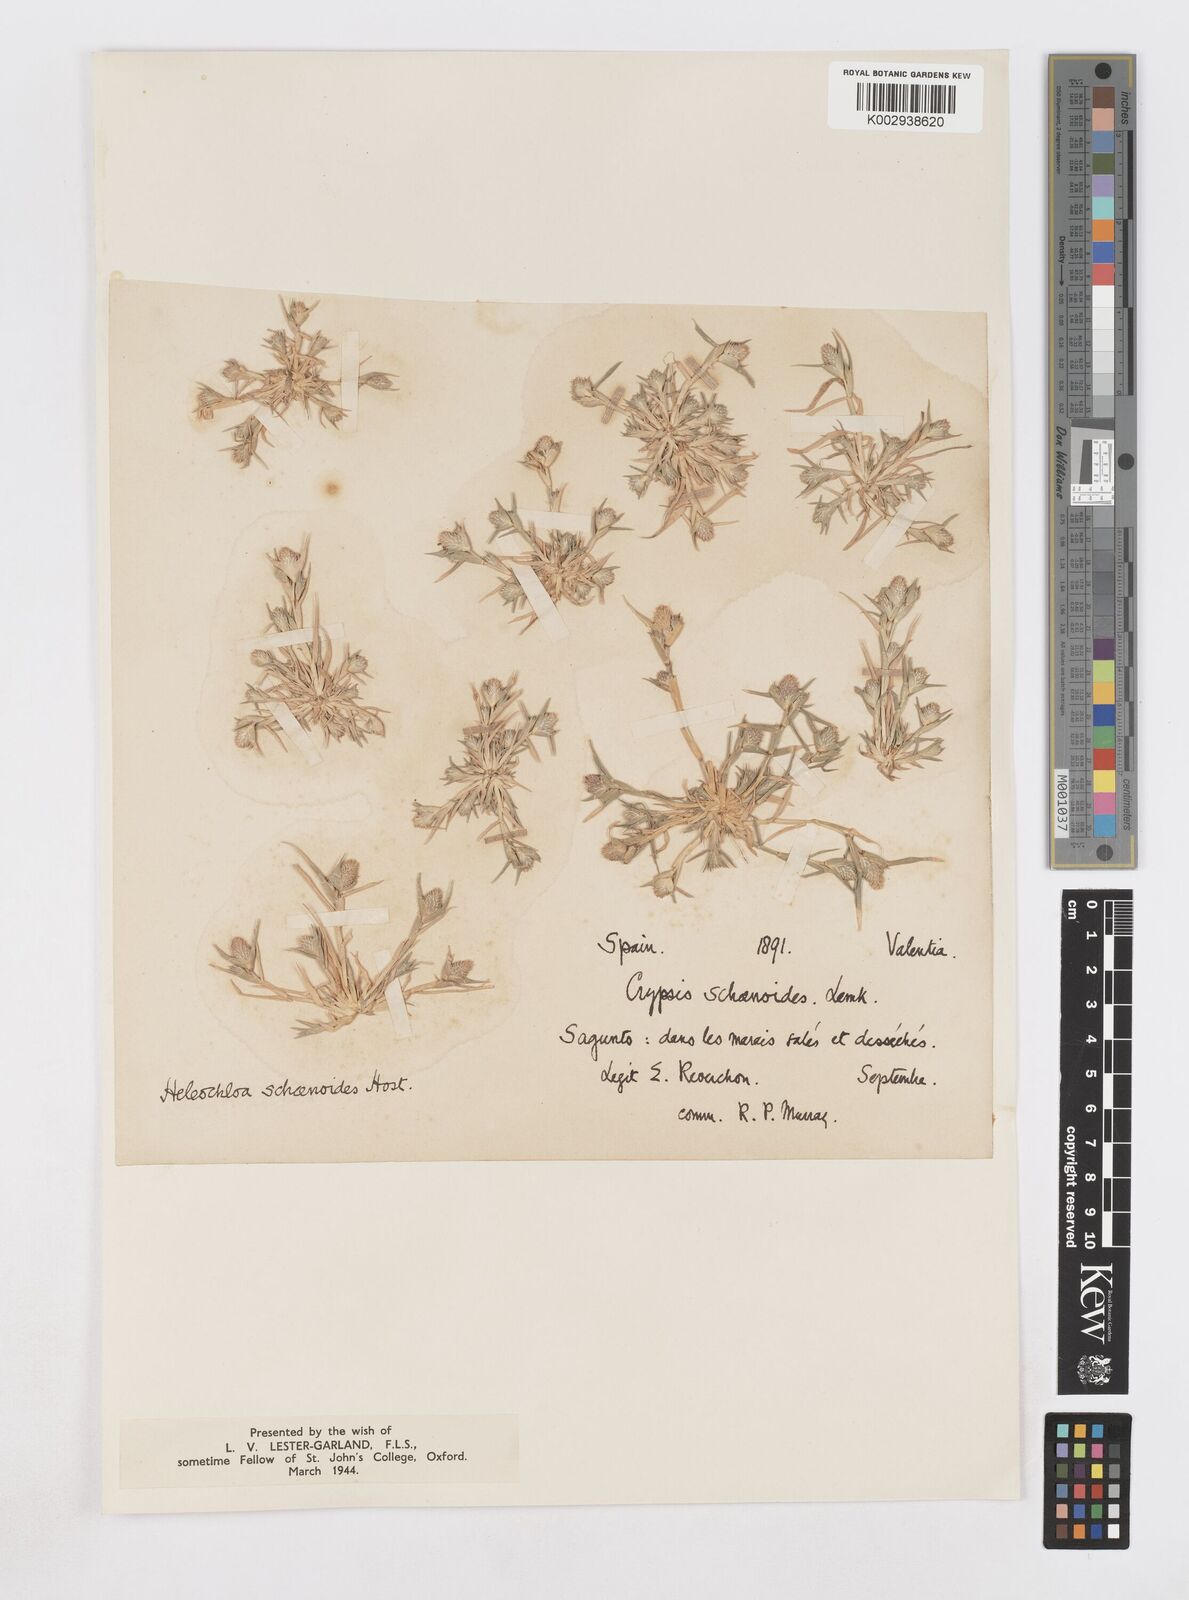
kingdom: Plantae
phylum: Tracheophyta
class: Liliopsida
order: Poales
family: Poaceae
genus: Sporobolus
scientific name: Sporobolus schoenoides
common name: Rush-like timothy
